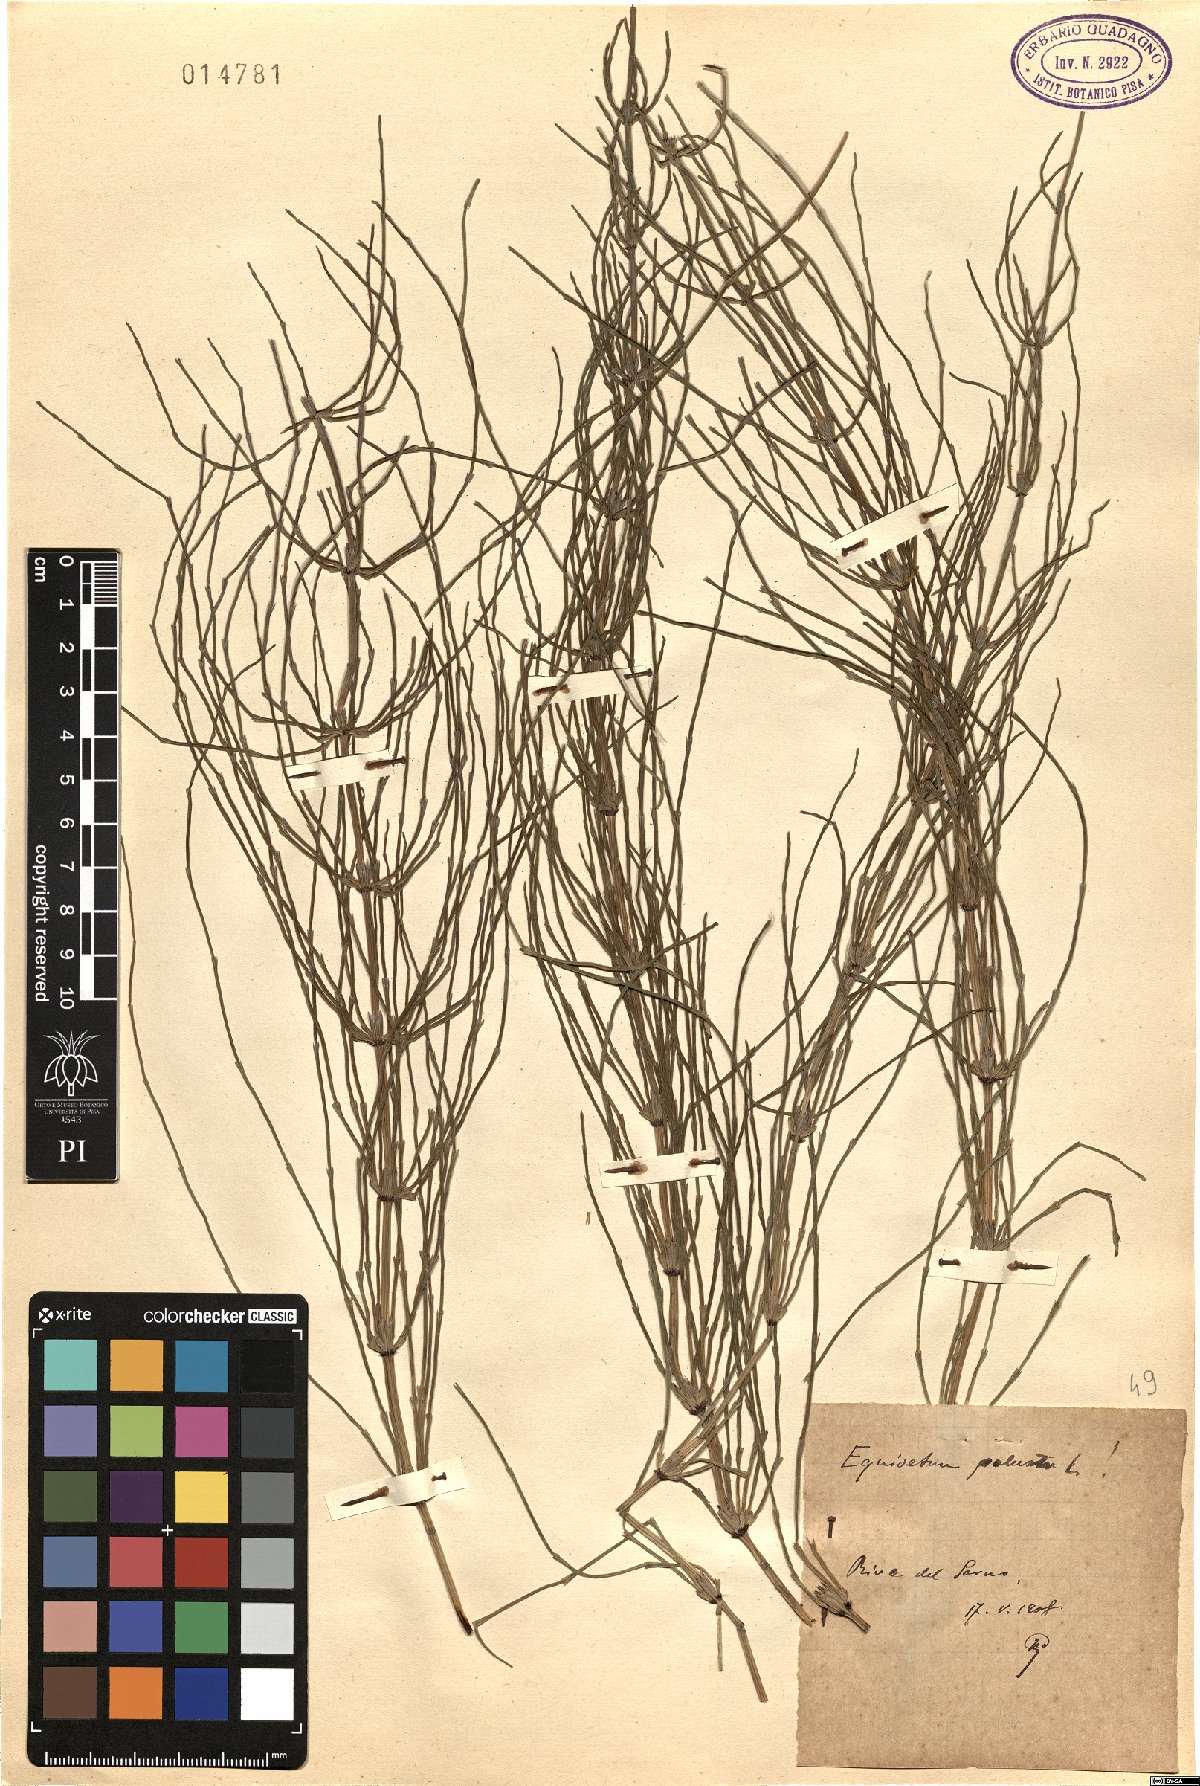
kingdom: Plantae
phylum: Tracheophyta
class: Polypodiopsida
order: Equisetales
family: Equisetaceae
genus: Equisetum
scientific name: Equisetum palustre
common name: Marsh horsetail
